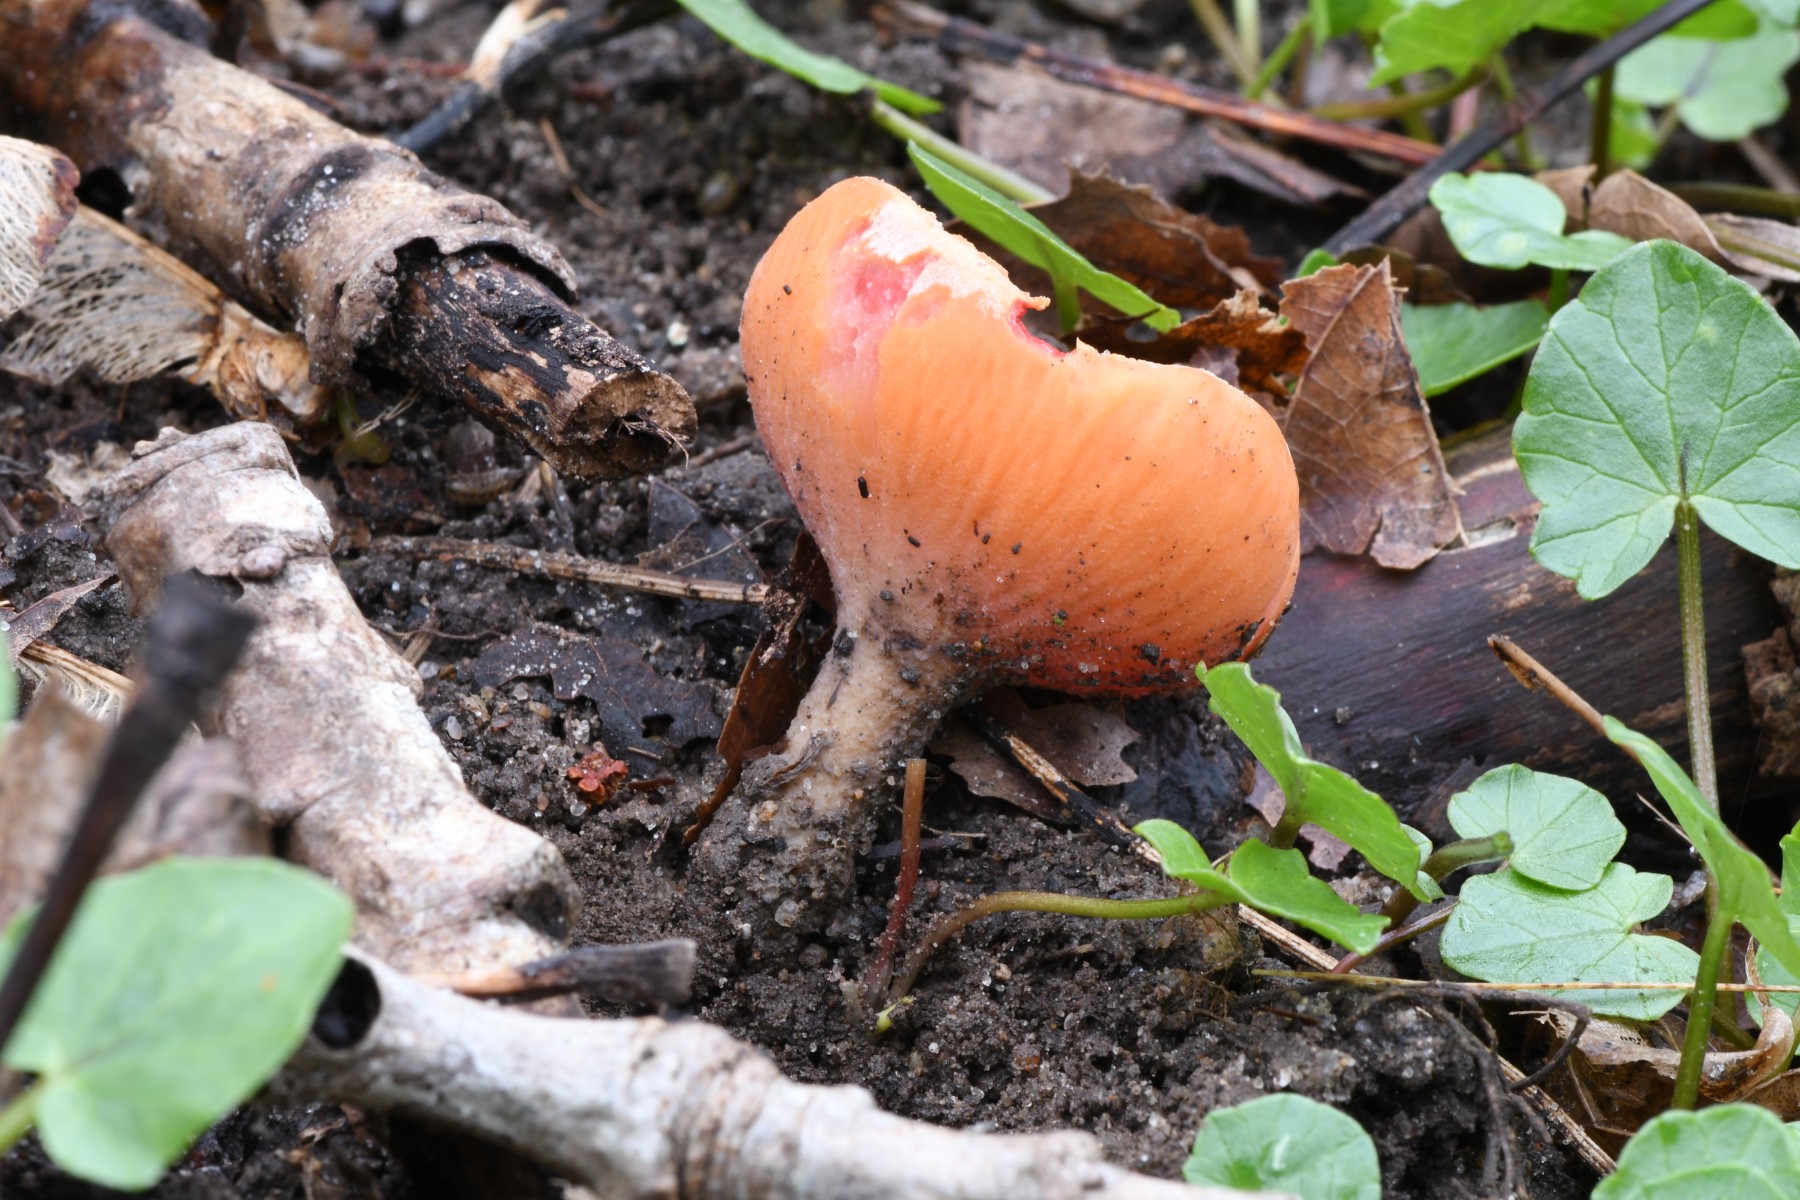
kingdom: Fungi
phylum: Ascomycota
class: Pezizomycetes
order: Pezizales
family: Sarcoscyphaceae
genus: Sarcoscypha
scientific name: Sarcoscypha austriaca
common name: krølhåret pragtbæger
